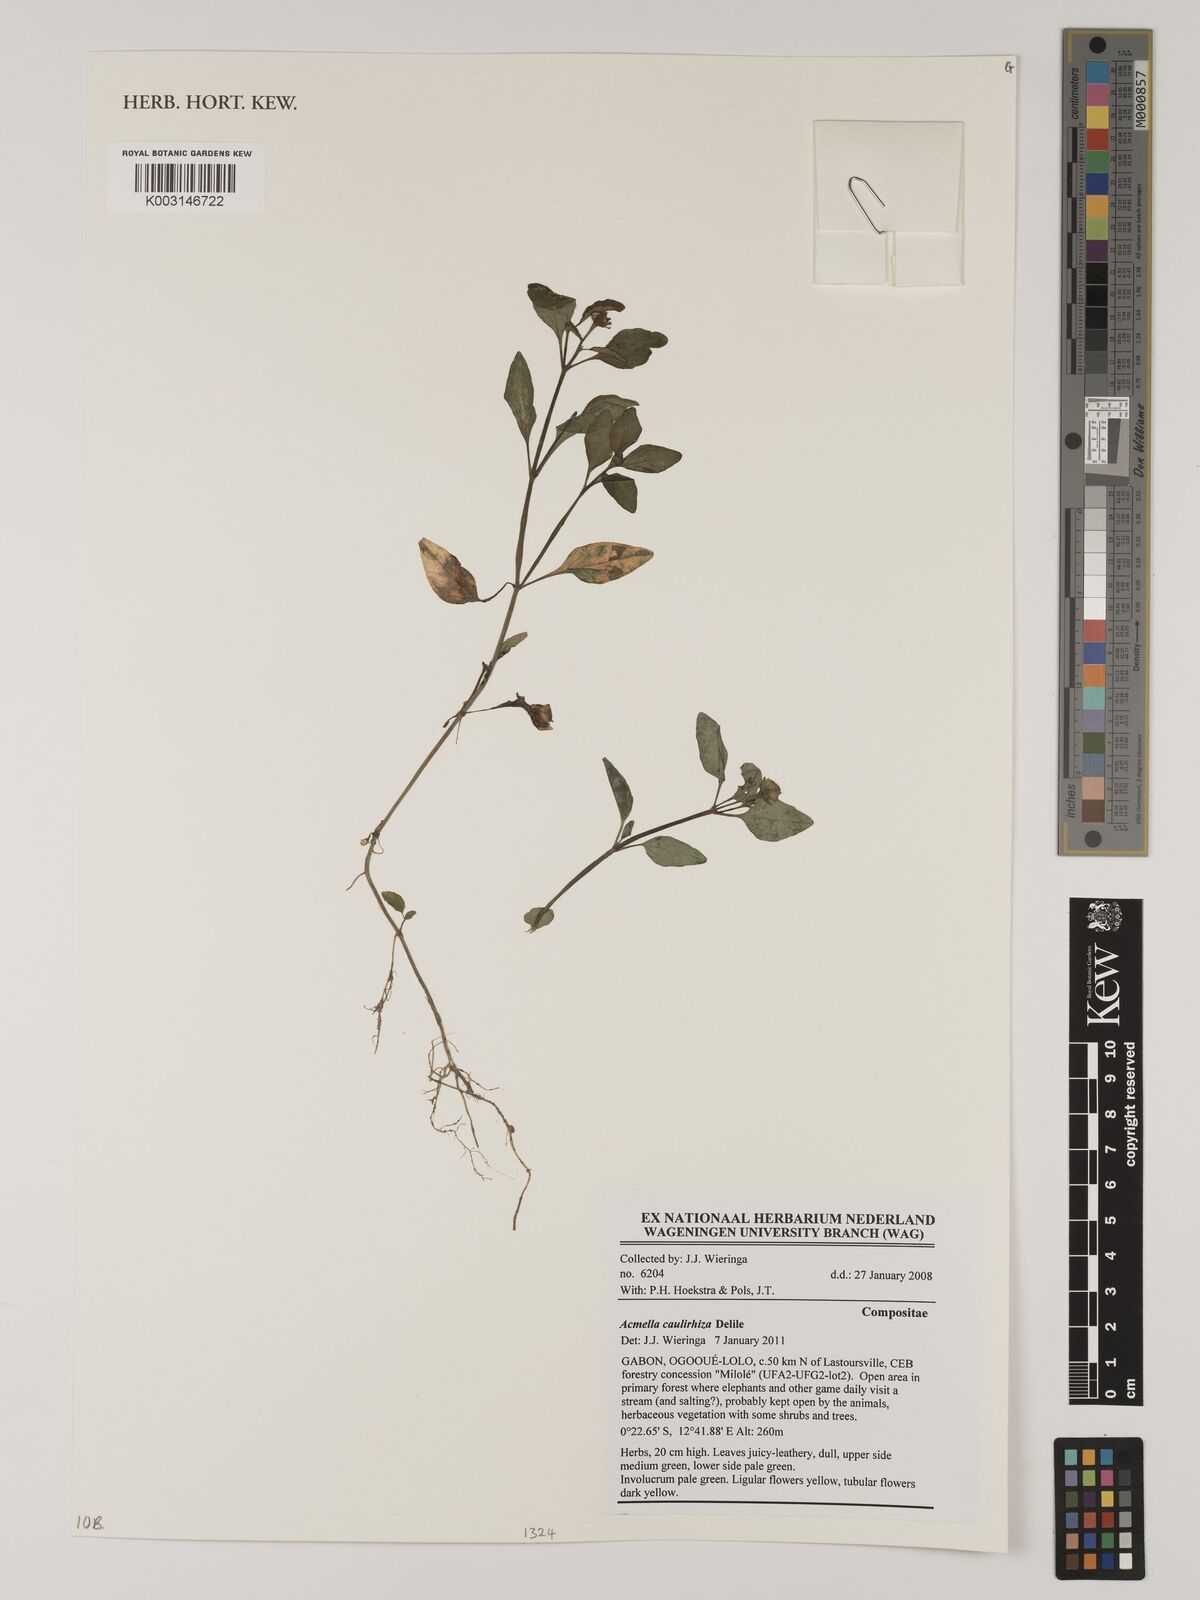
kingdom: Plantae
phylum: Tracheophyta
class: Magnoliopsida
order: Asterales
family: Asteraceae
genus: Acmella
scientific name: Acmella caulirhiza
